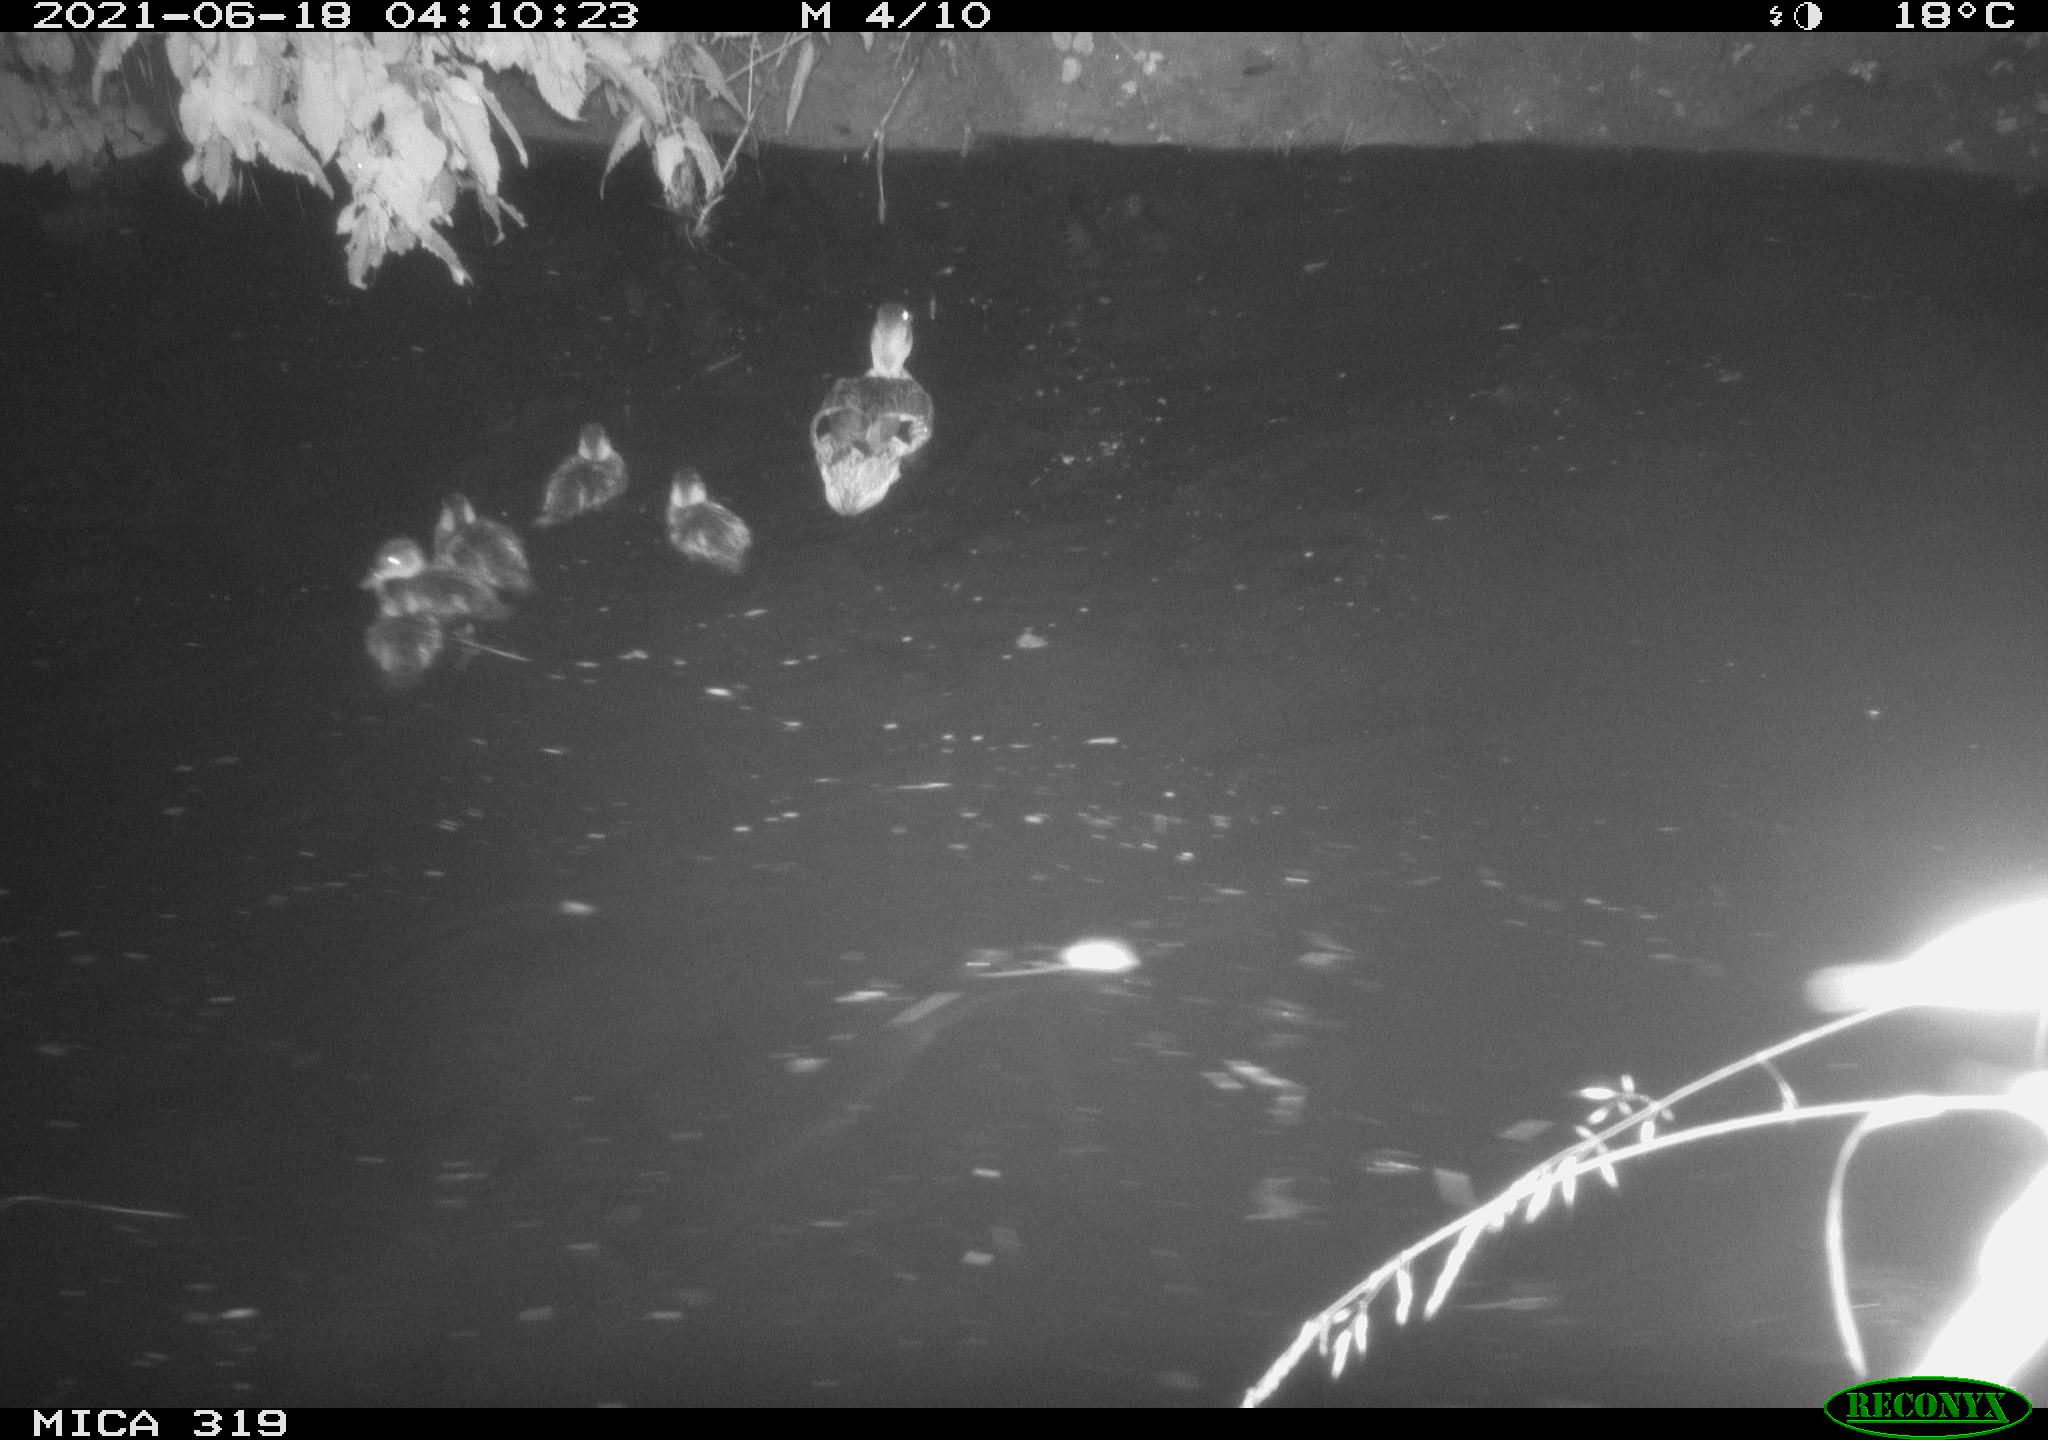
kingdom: Animalia
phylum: Chordata
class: Aves
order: Anseriformes
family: Anatidae
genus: Anas
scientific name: Anas platyrhynchos
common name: Mallard
